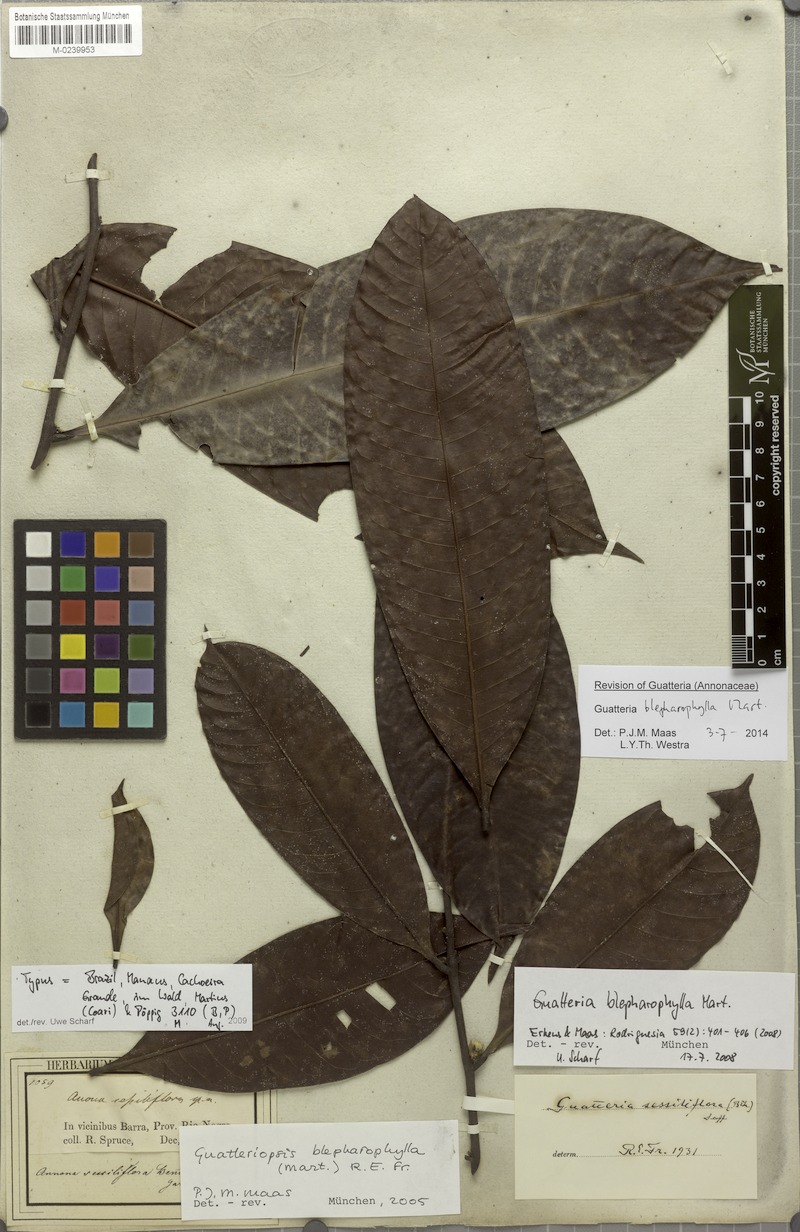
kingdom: Plantae
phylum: Tracheophyta
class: Magnoliopsida
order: Magnoliales
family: Annonaceae
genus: Guatteria
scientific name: Guatteria blepharophylla
